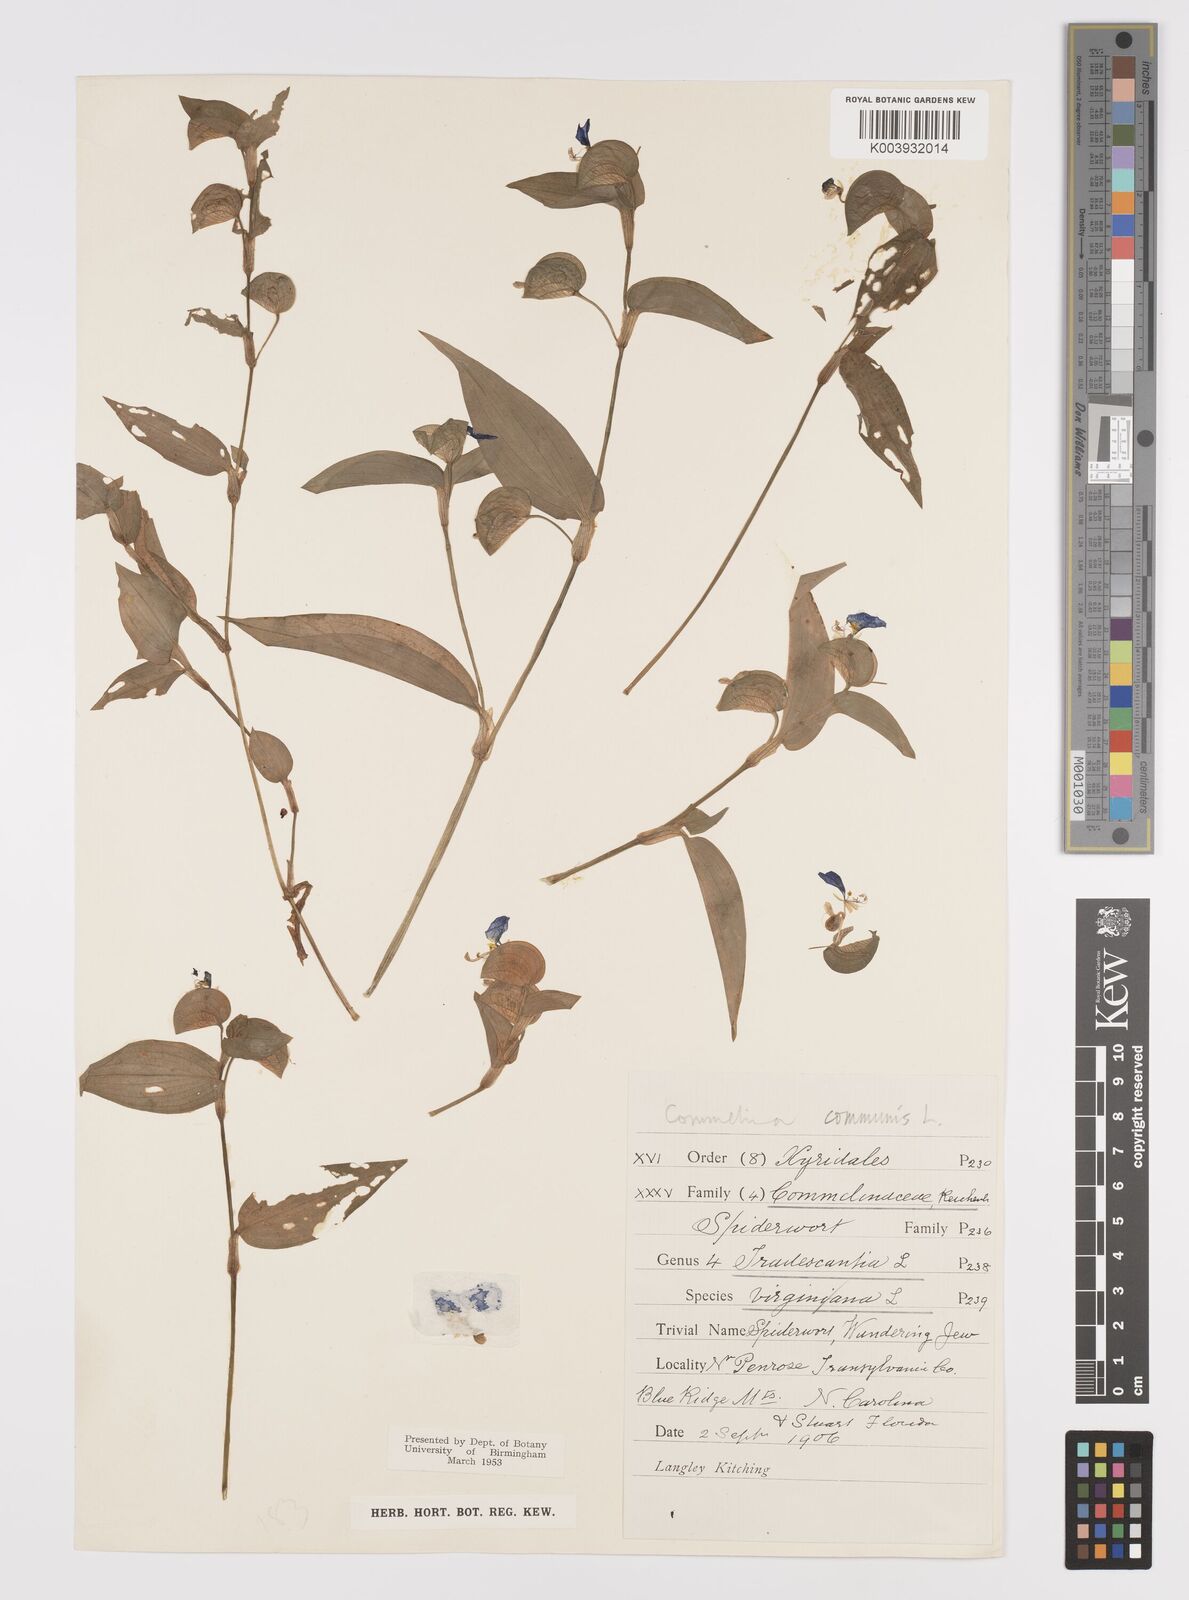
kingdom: Plantae
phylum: Tracheophyta
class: Liliopsida
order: Commelinales
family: Commelinaceae
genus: Commelina
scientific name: Commelina communis
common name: Asiatic dayflower
